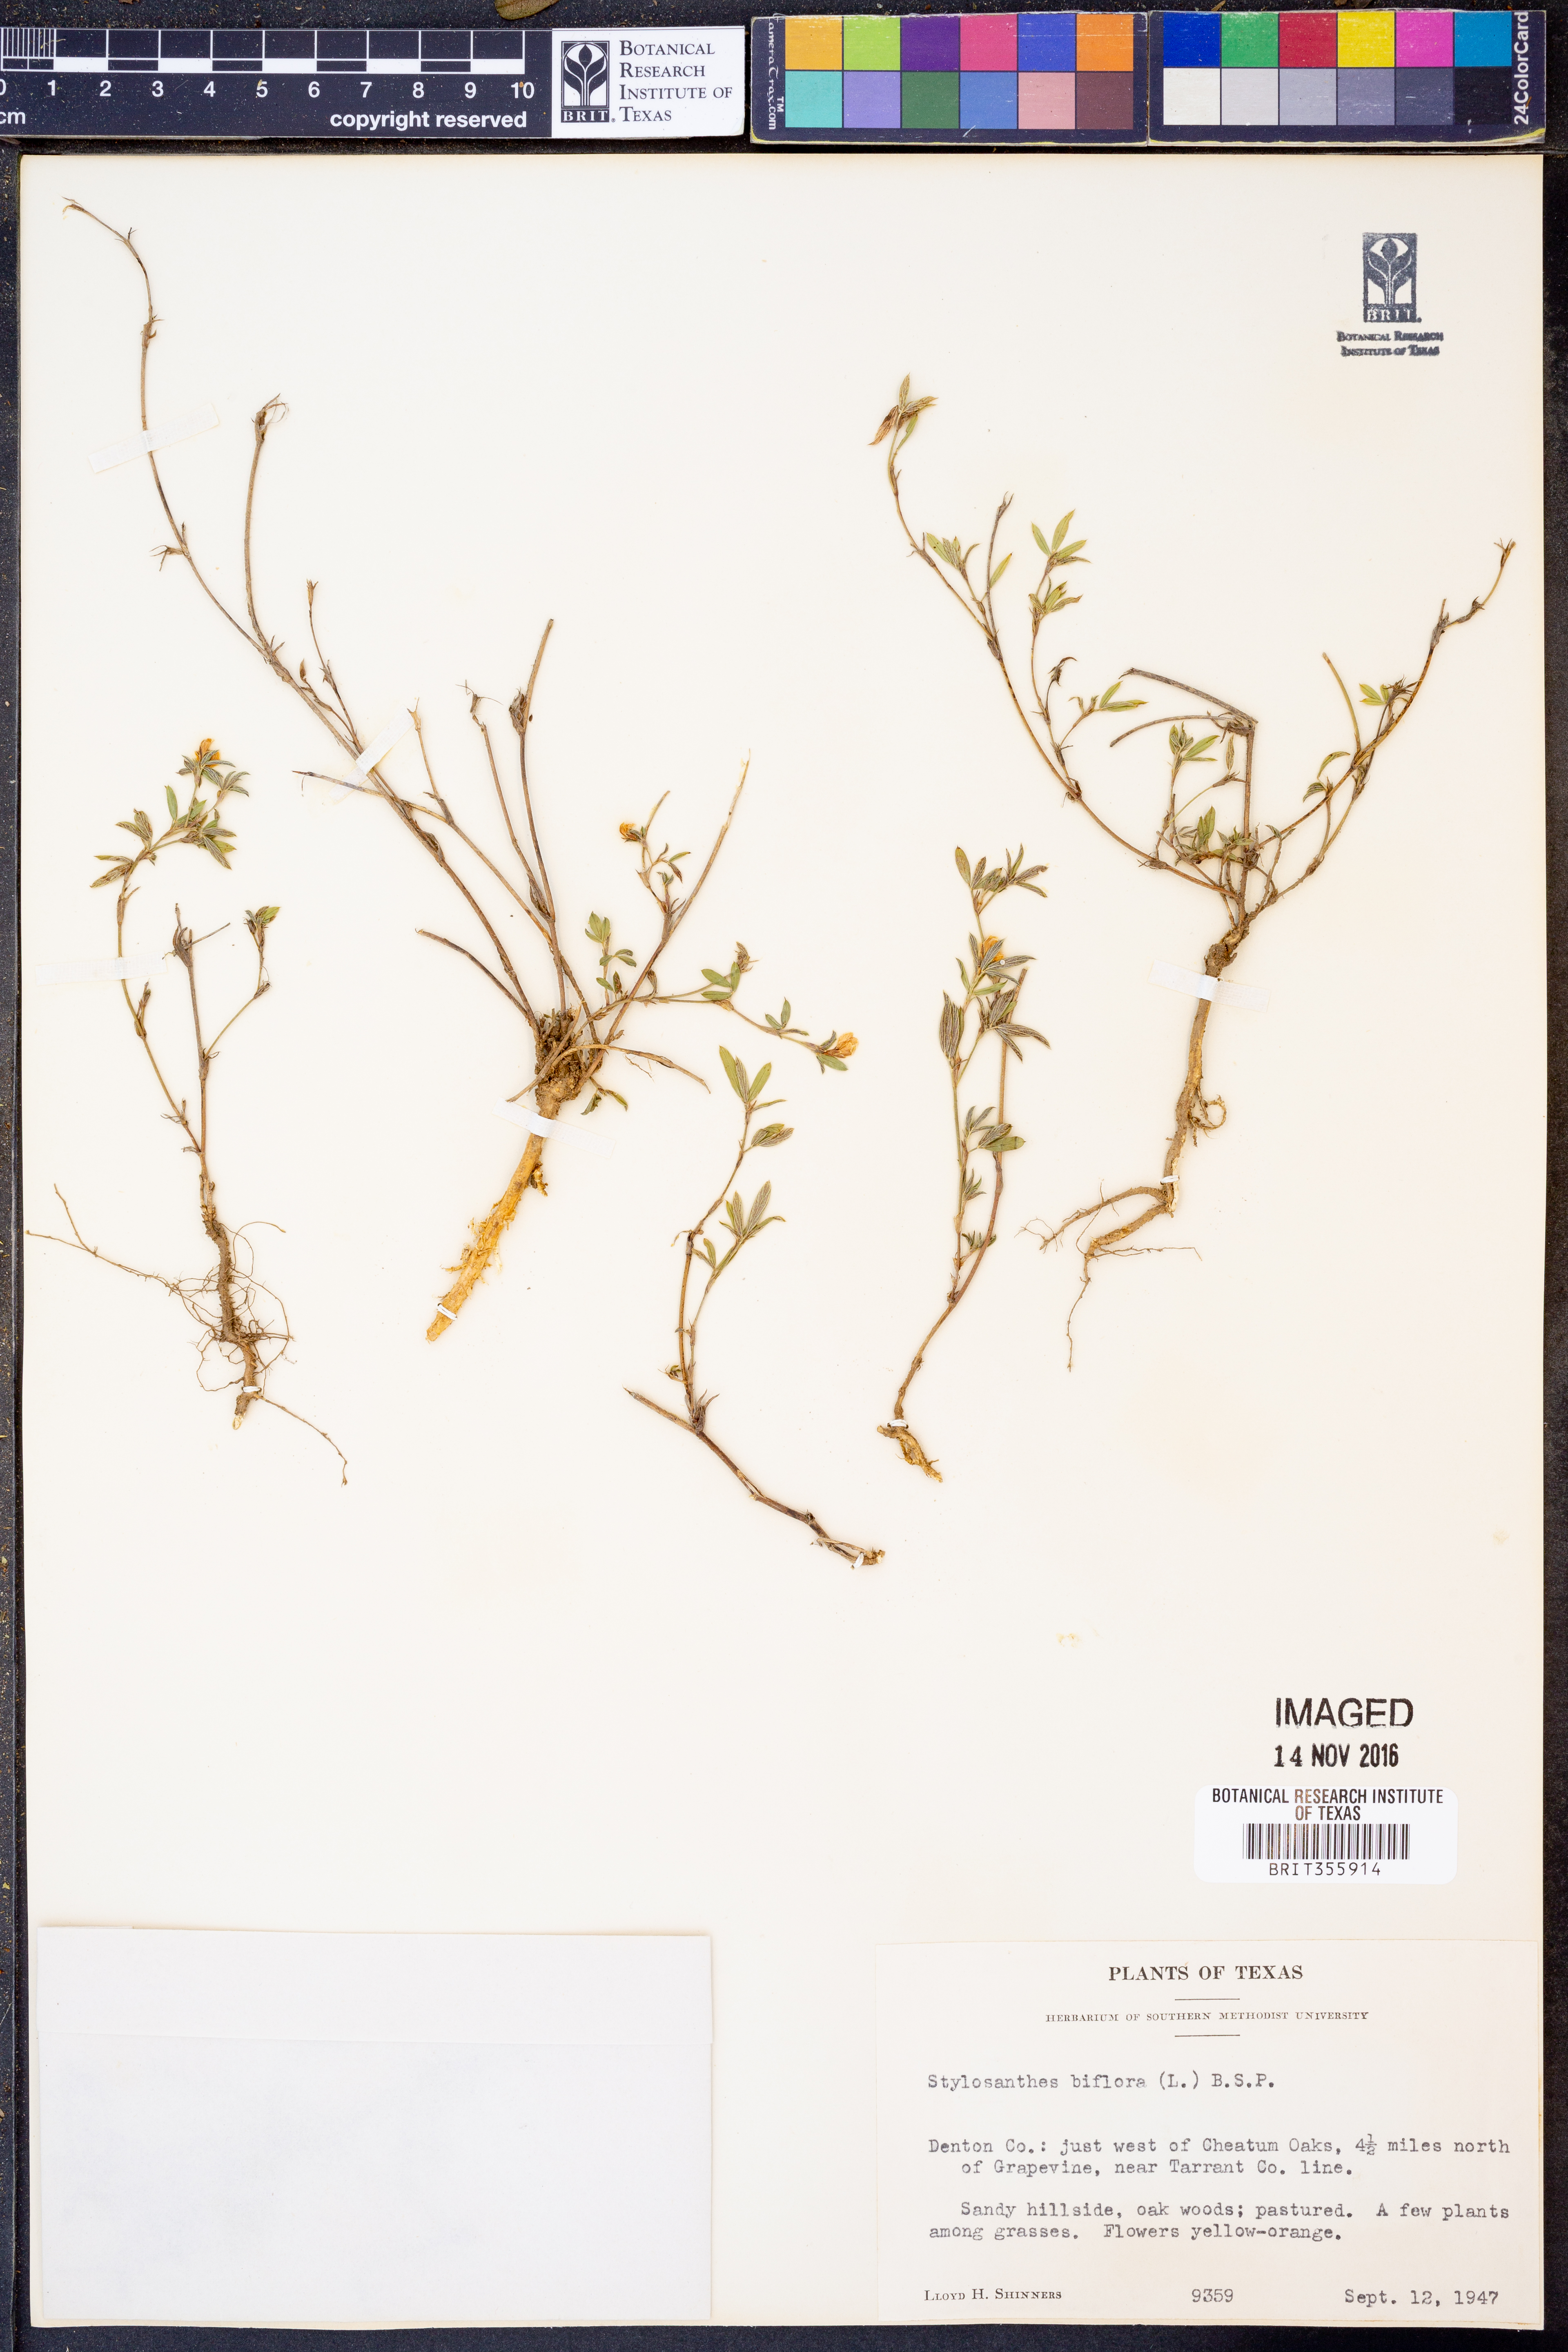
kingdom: Plantae
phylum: Tracheophyta
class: Magnoliopsida
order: Fabales
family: Fabaceae
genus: Stylosanthes
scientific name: Stylosanthes biflora
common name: Two-flower pencil-flower
